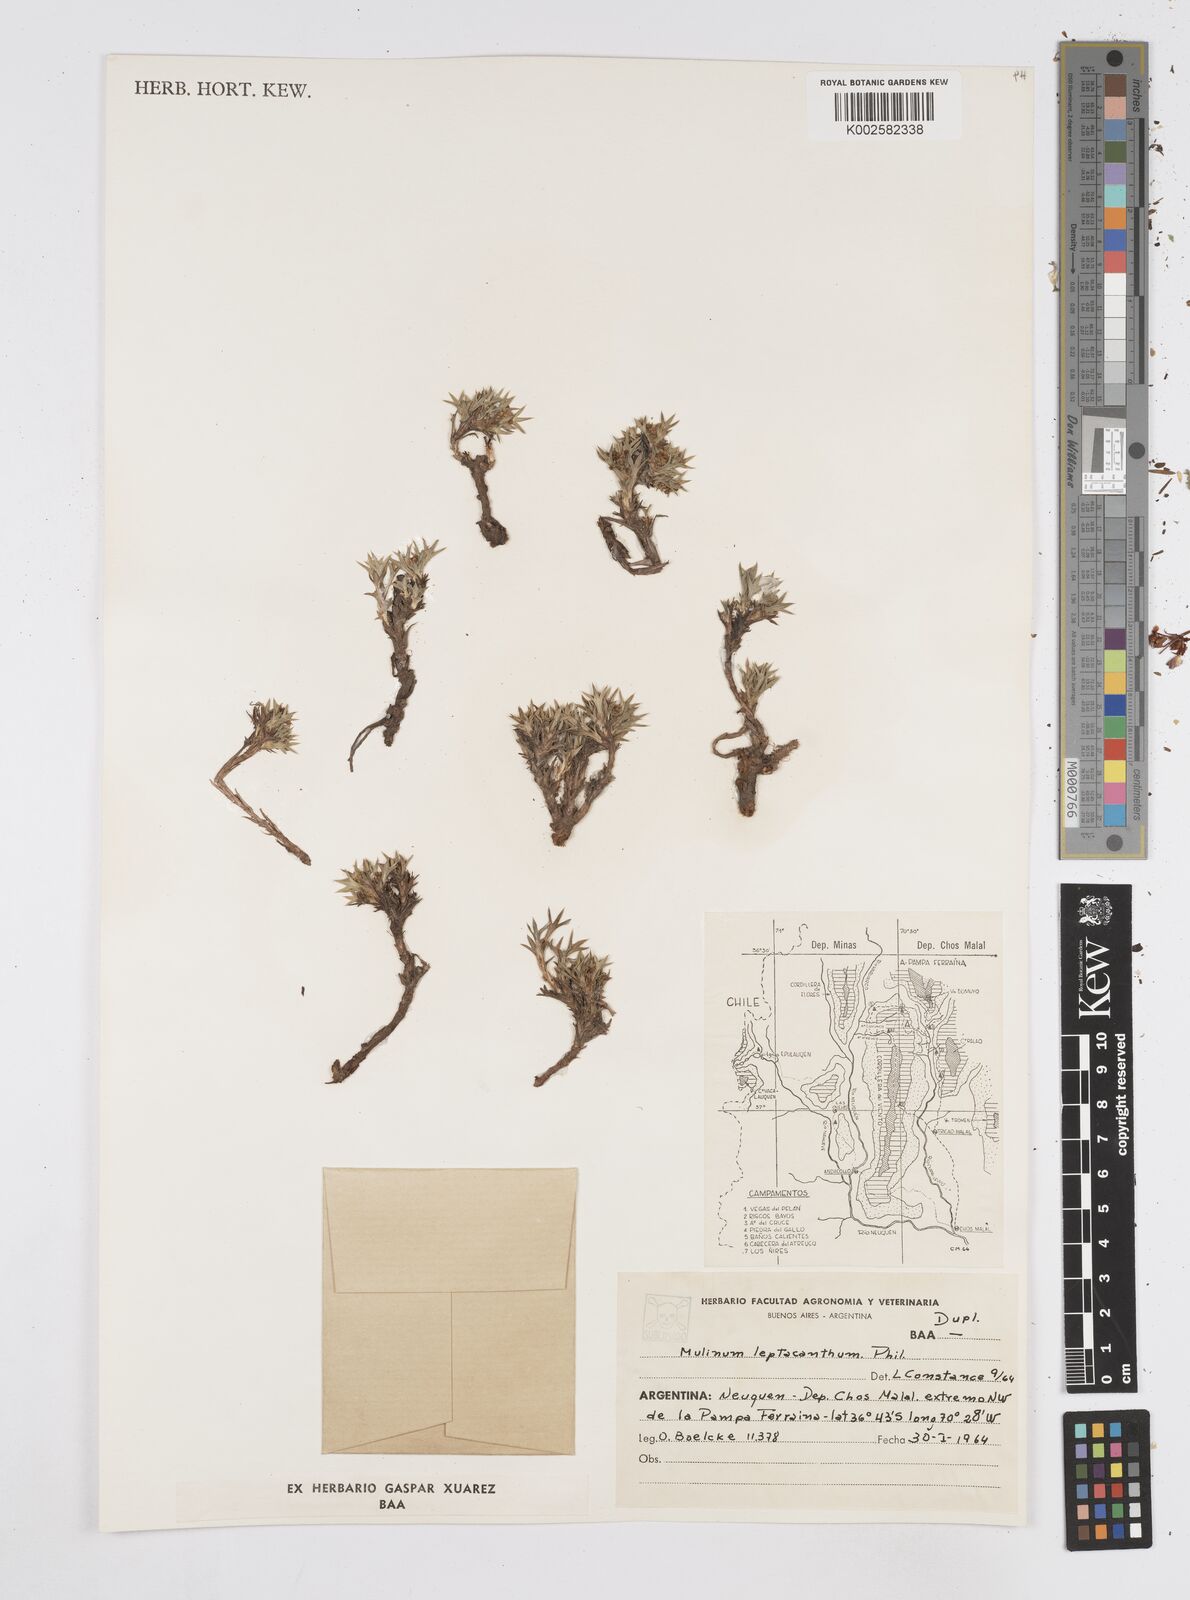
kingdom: Plantae
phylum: Tracheophyta
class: Magnoliopsida
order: Apiales
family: Apiaceae
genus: Azorella
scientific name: Azorella nivalis
